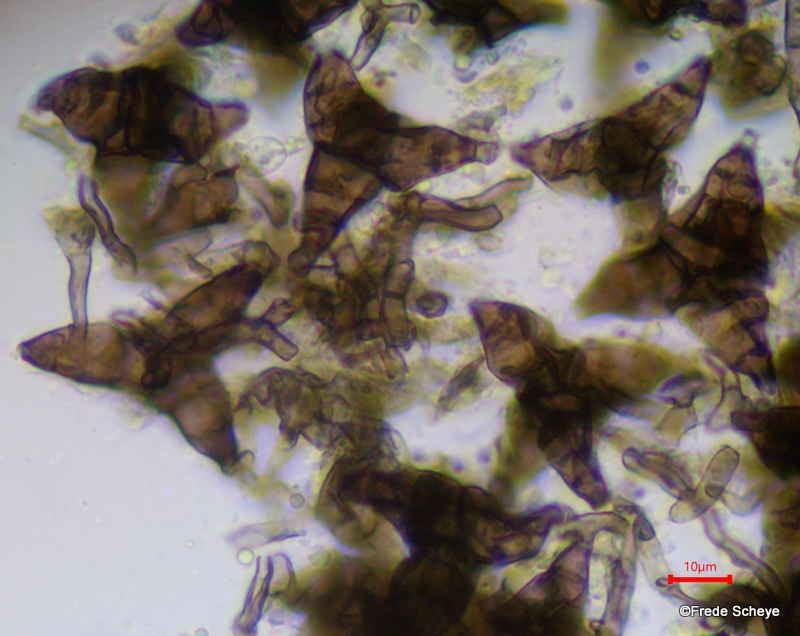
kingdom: Fungi
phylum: Ascomycota
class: Sordariomycetes
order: Diaporthales
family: Asterosporiaceae
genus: Asterosporium
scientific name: Asterosporium asterospermum
